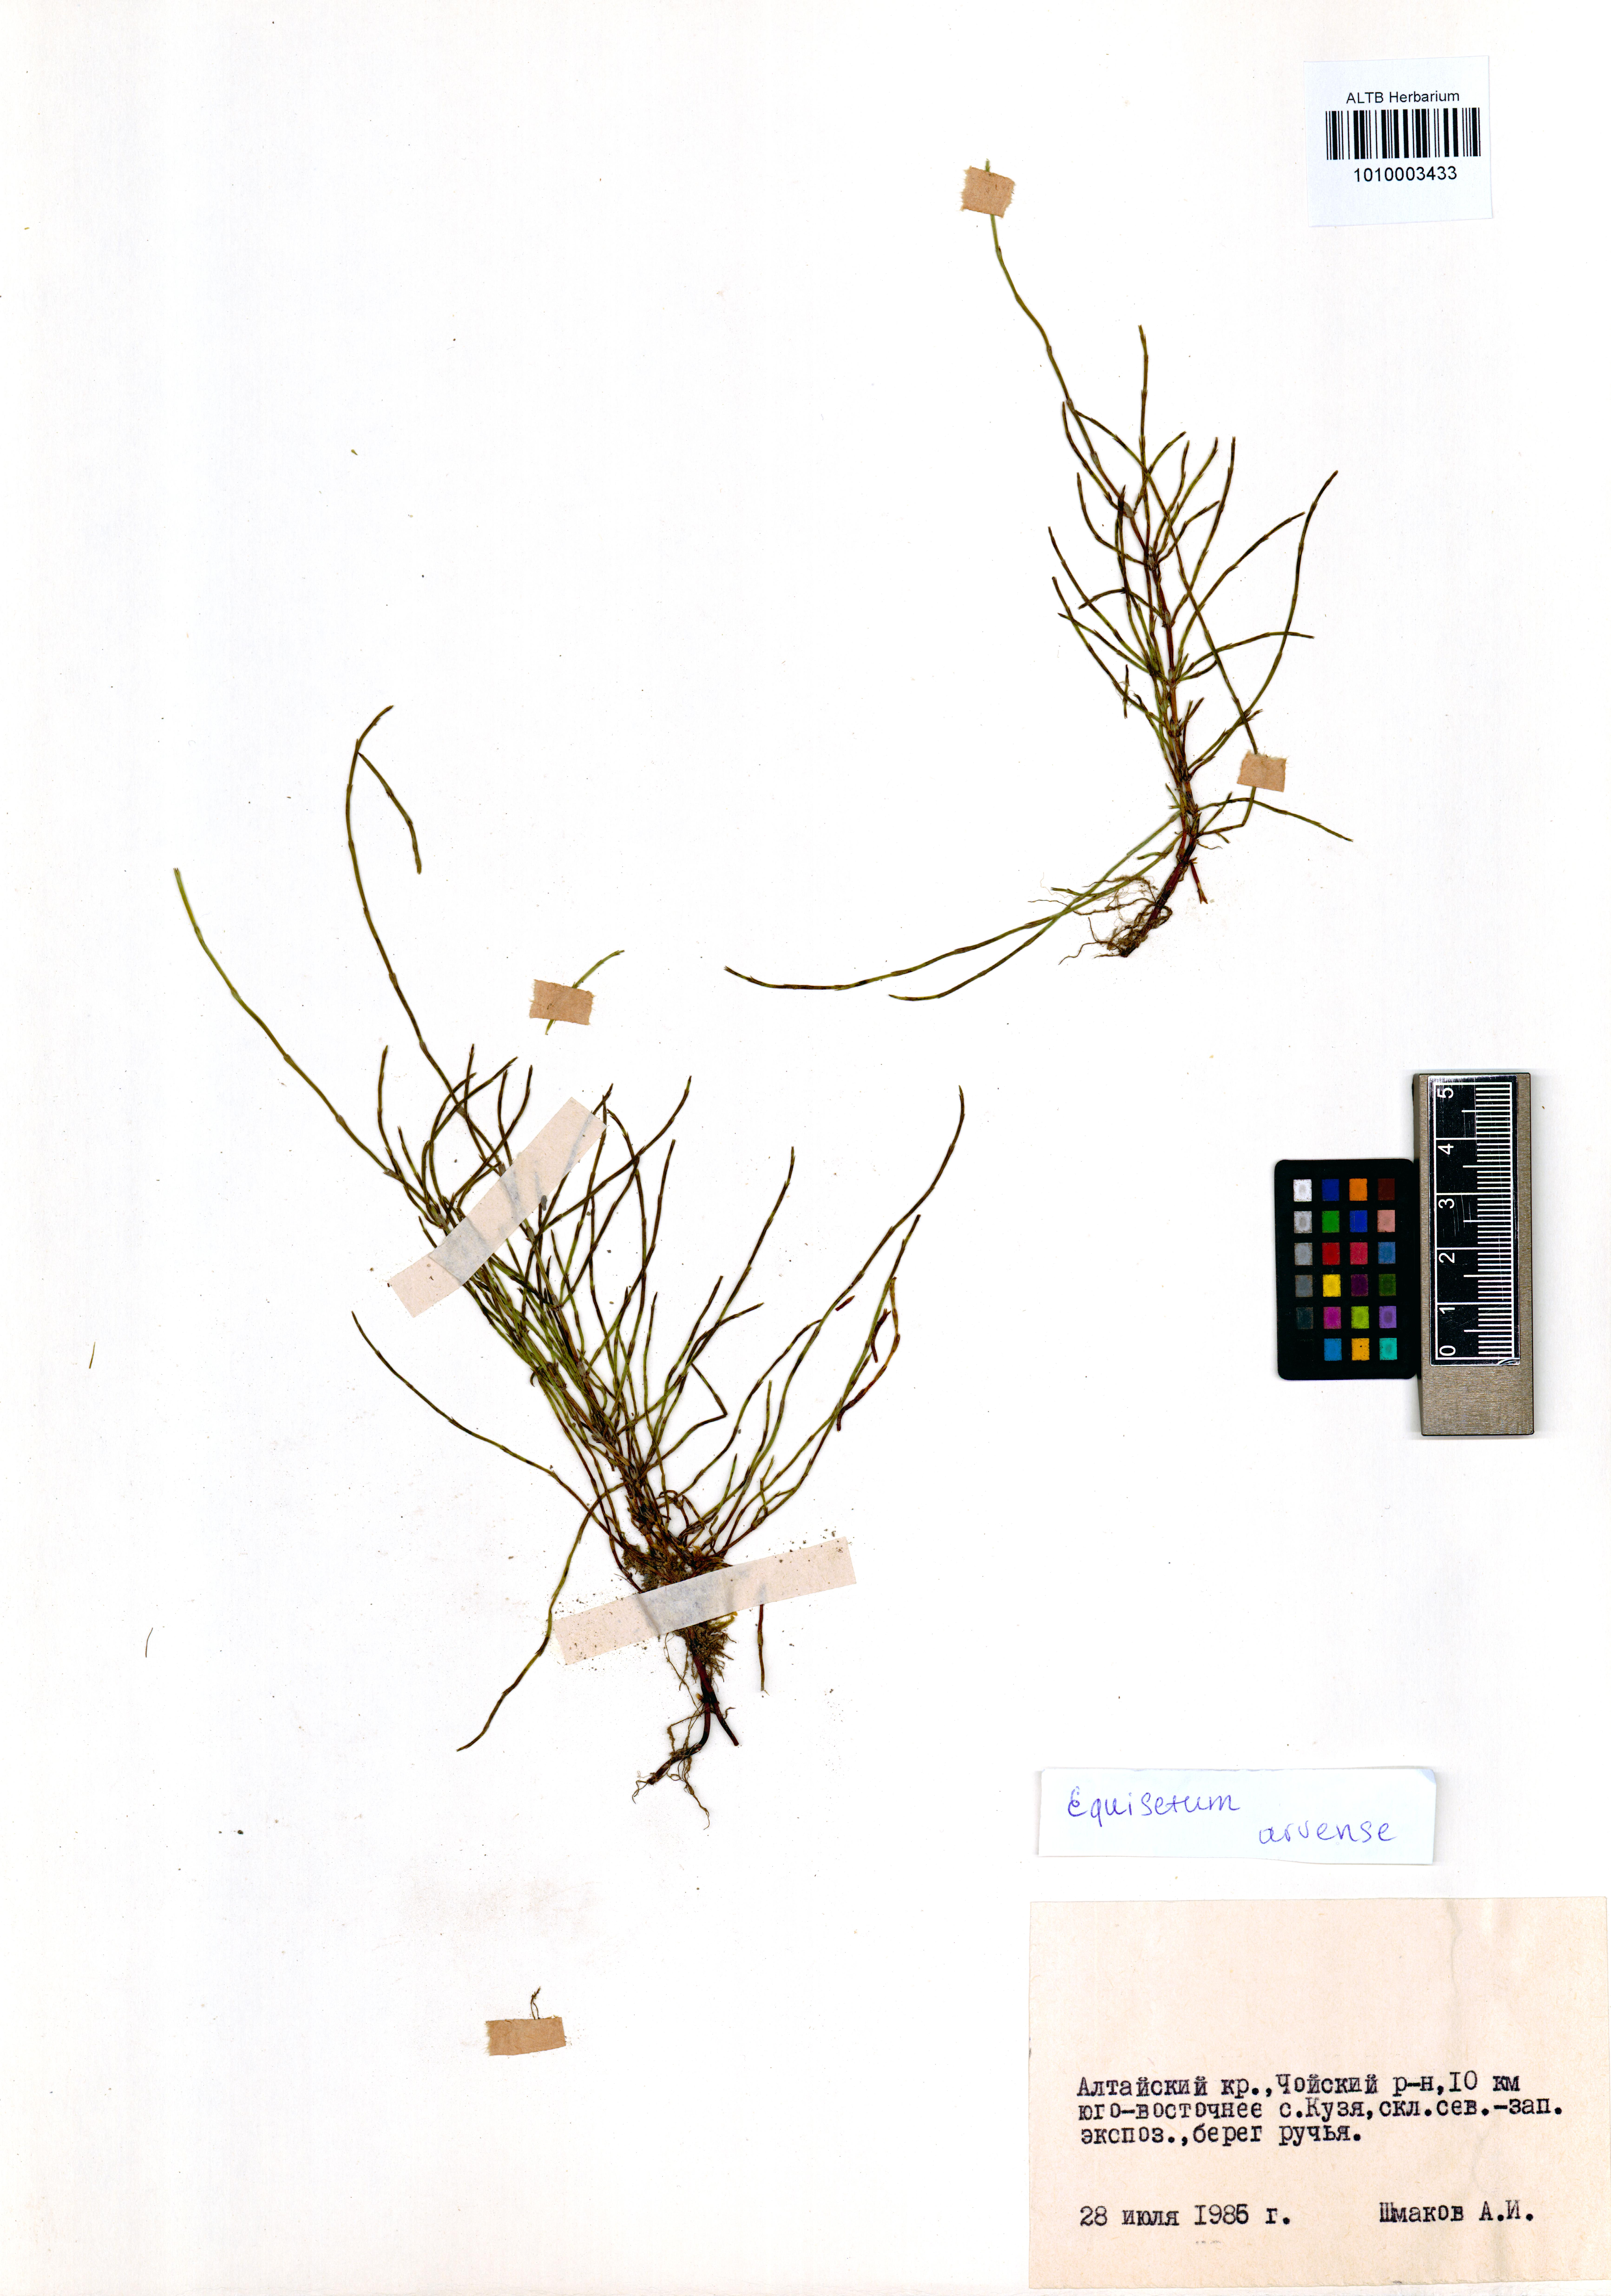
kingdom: Plantae
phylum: Tracheophyta
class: Polypodiopsida
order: Equisetales
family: Equisetaceae
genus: Equisetum
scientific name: Equisetum arvense
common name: Field horsetail
